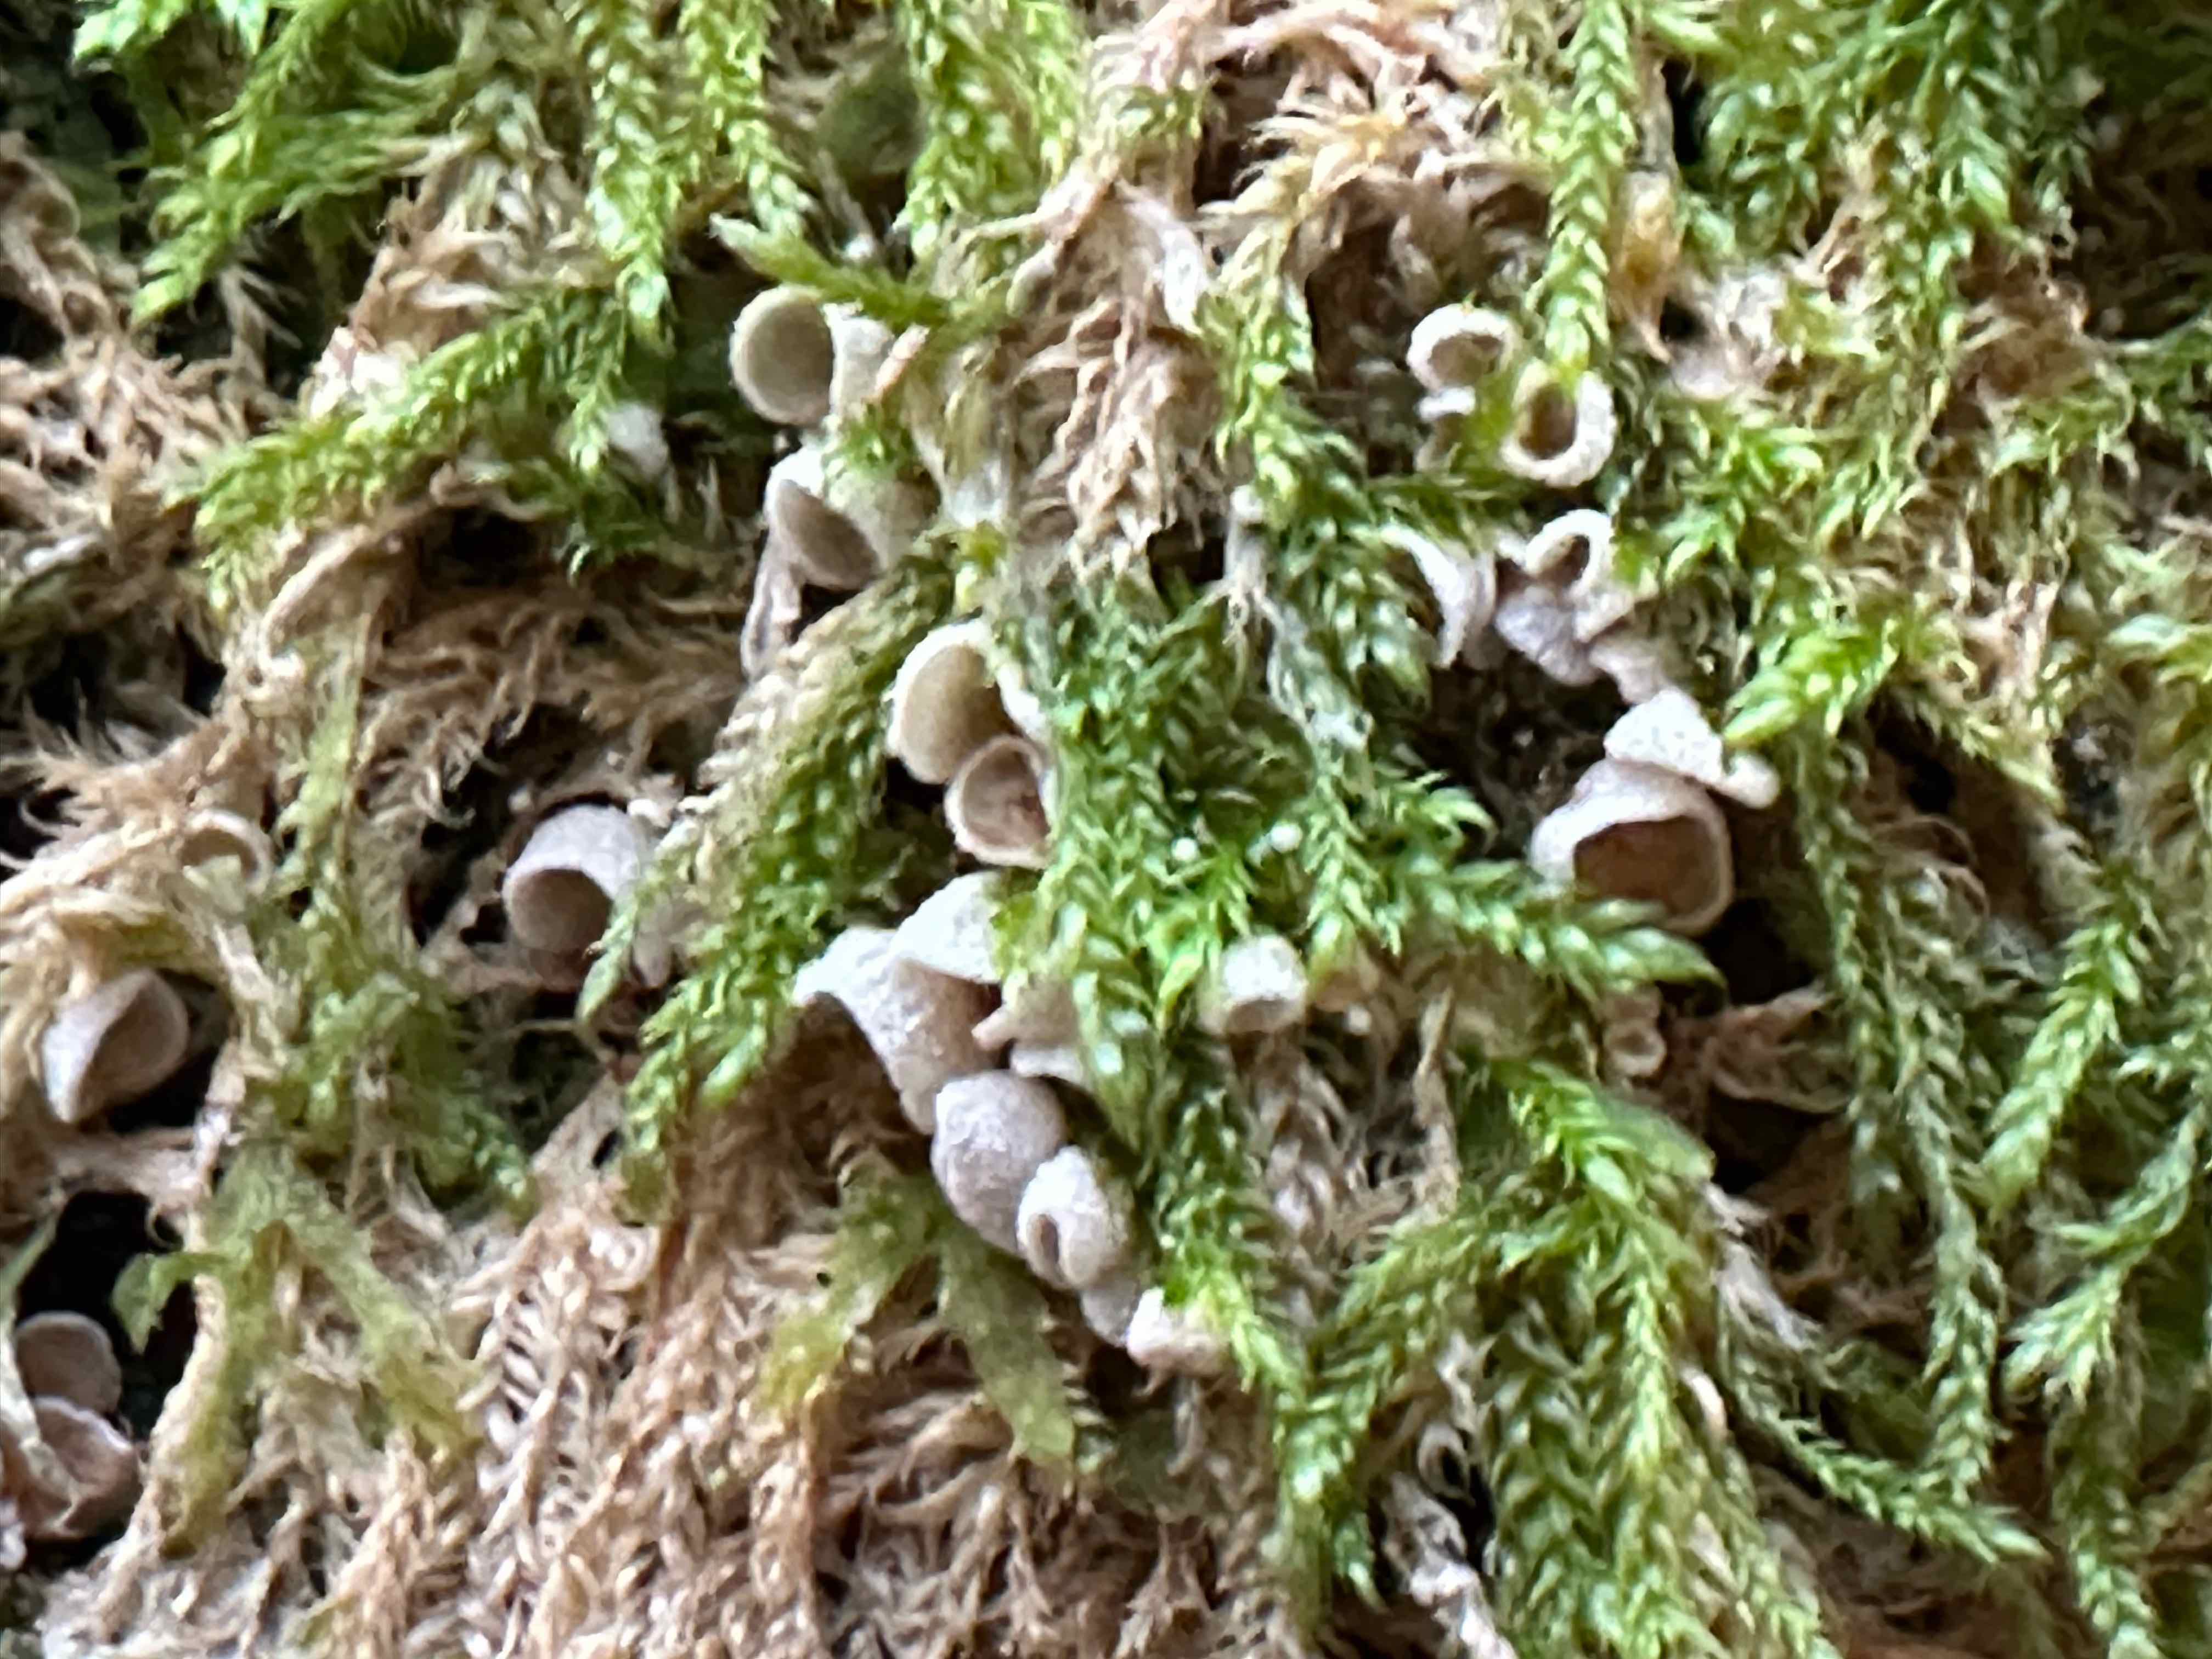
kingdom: Fungi
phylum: Basidiomycota
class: Agaricomycetes
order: Agaricales
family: Chromocyphellaceae
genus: Chromocyphella
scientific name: Chromocyphella muscicola
